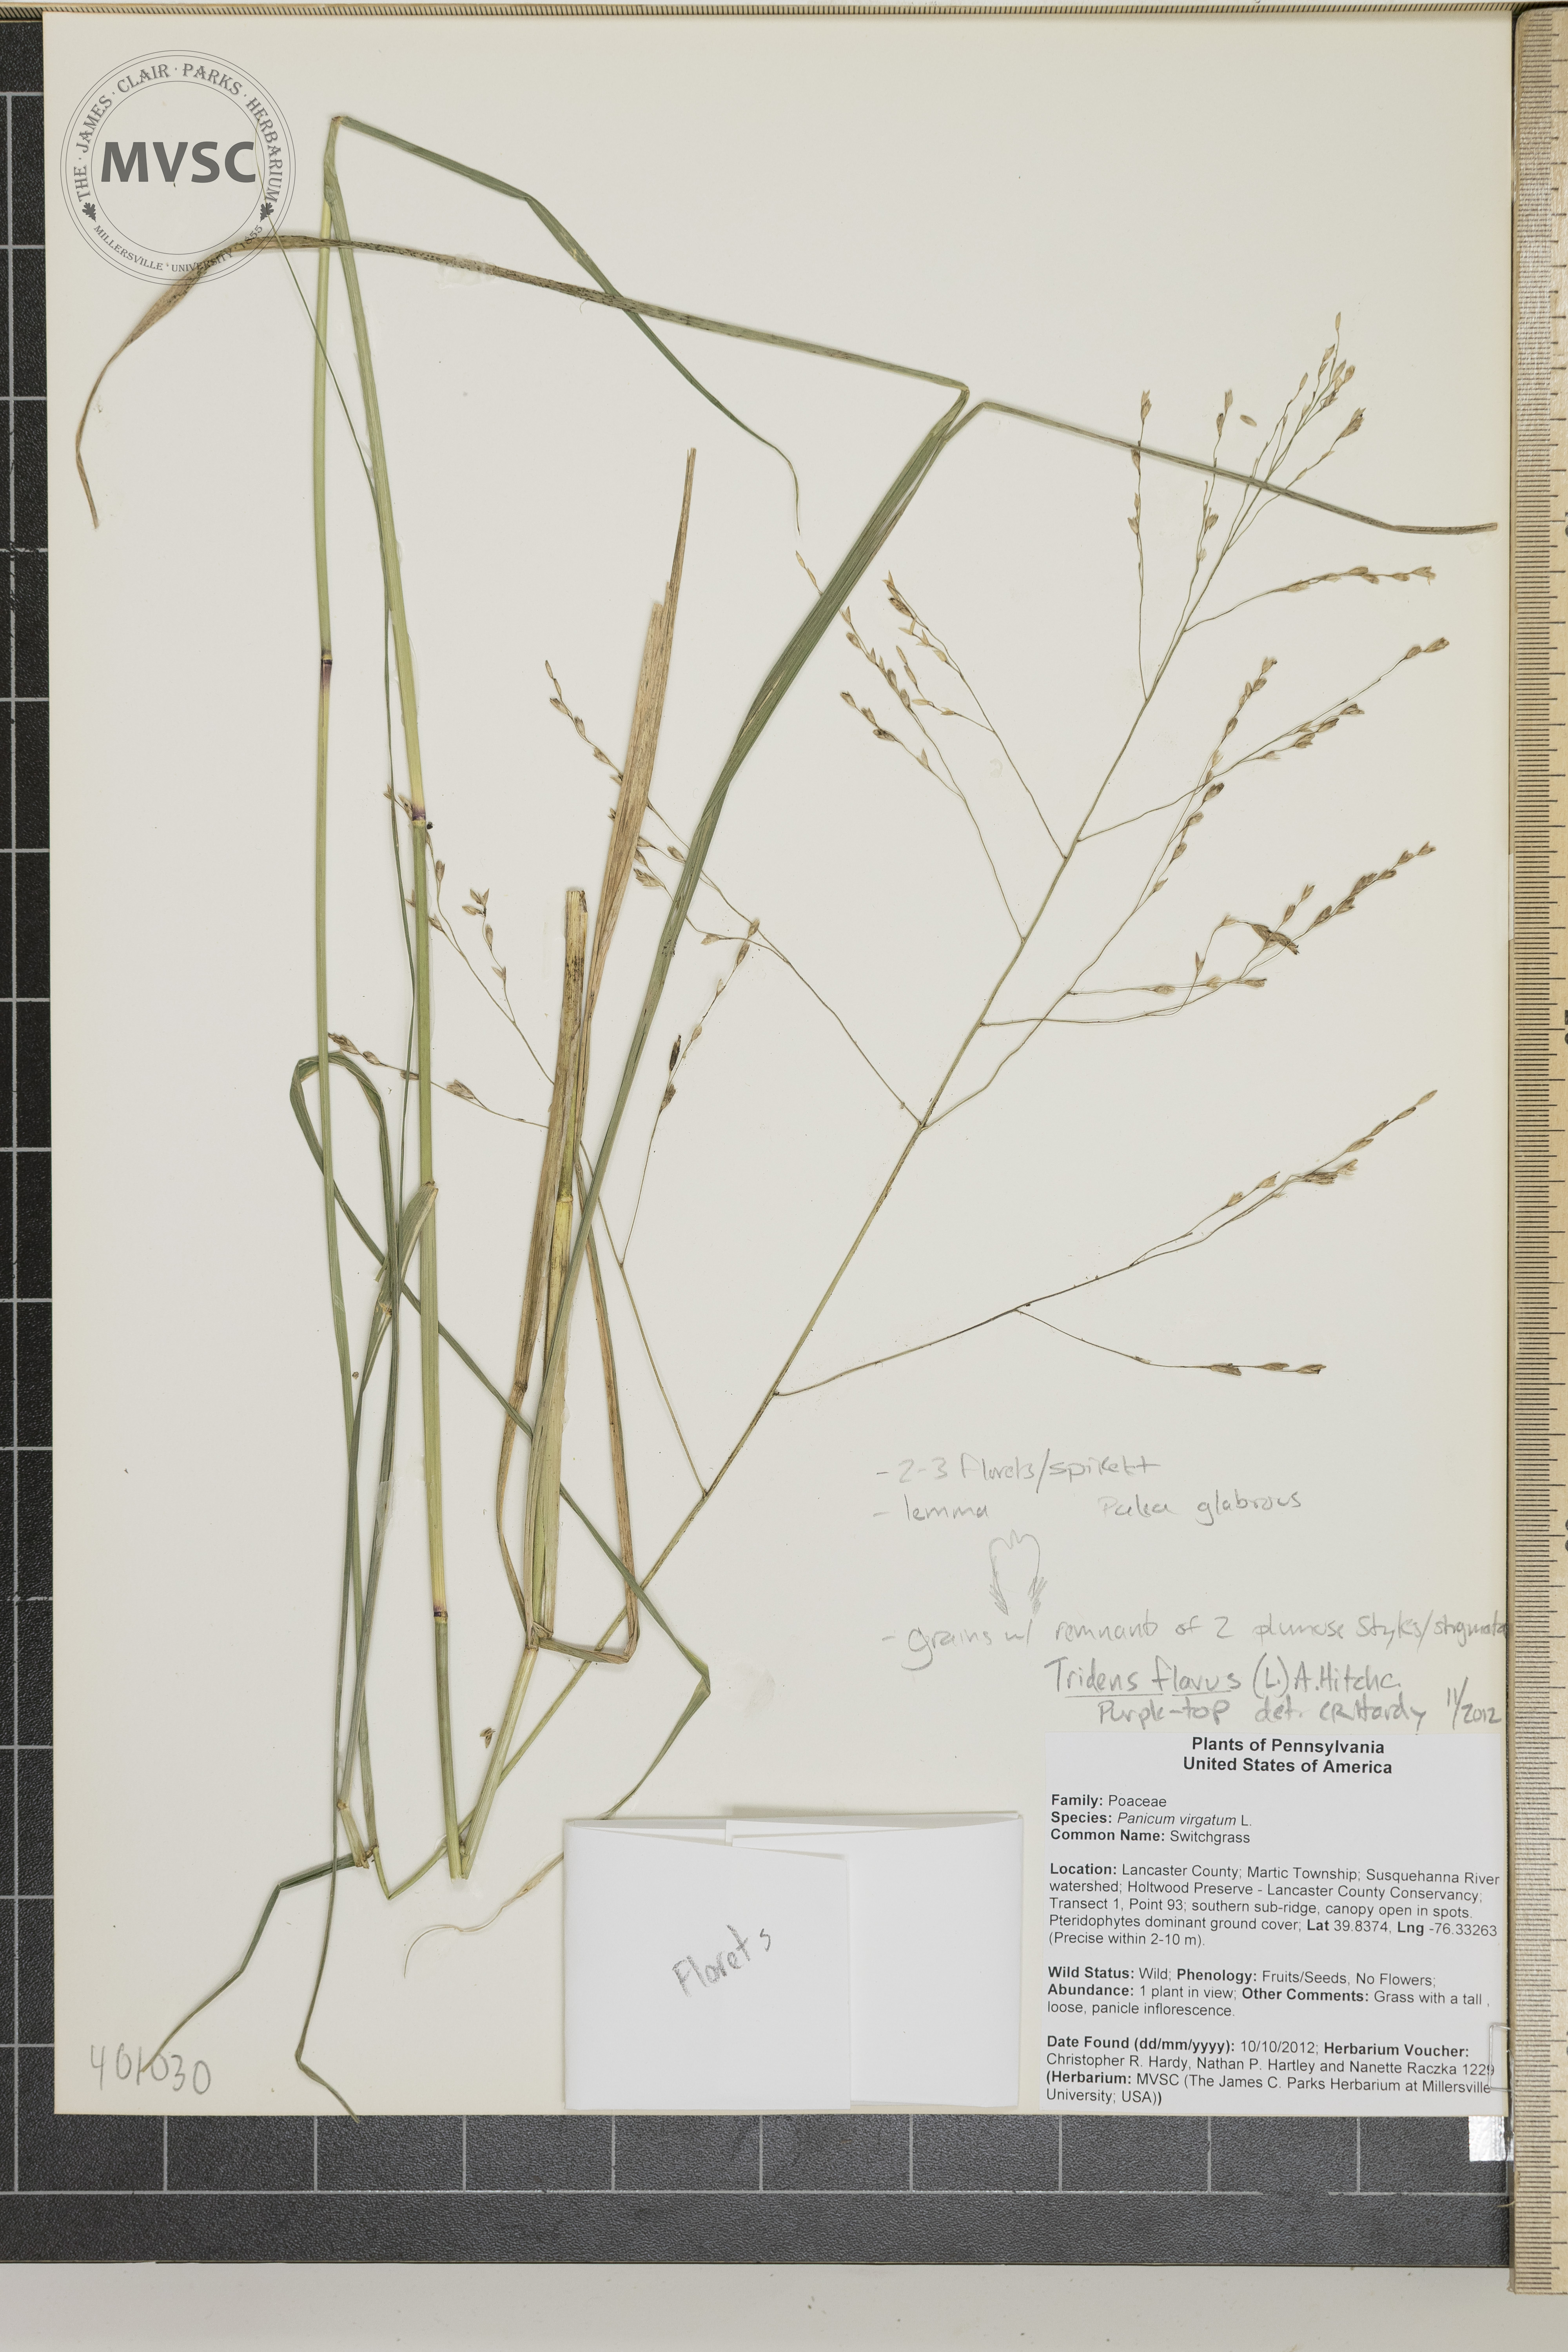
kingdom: Plantae
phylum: Tracheophyta
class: Liliopsida
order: Poales
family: Poaceae
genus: Tridens
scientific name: Tridens flavus
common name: purpletop
